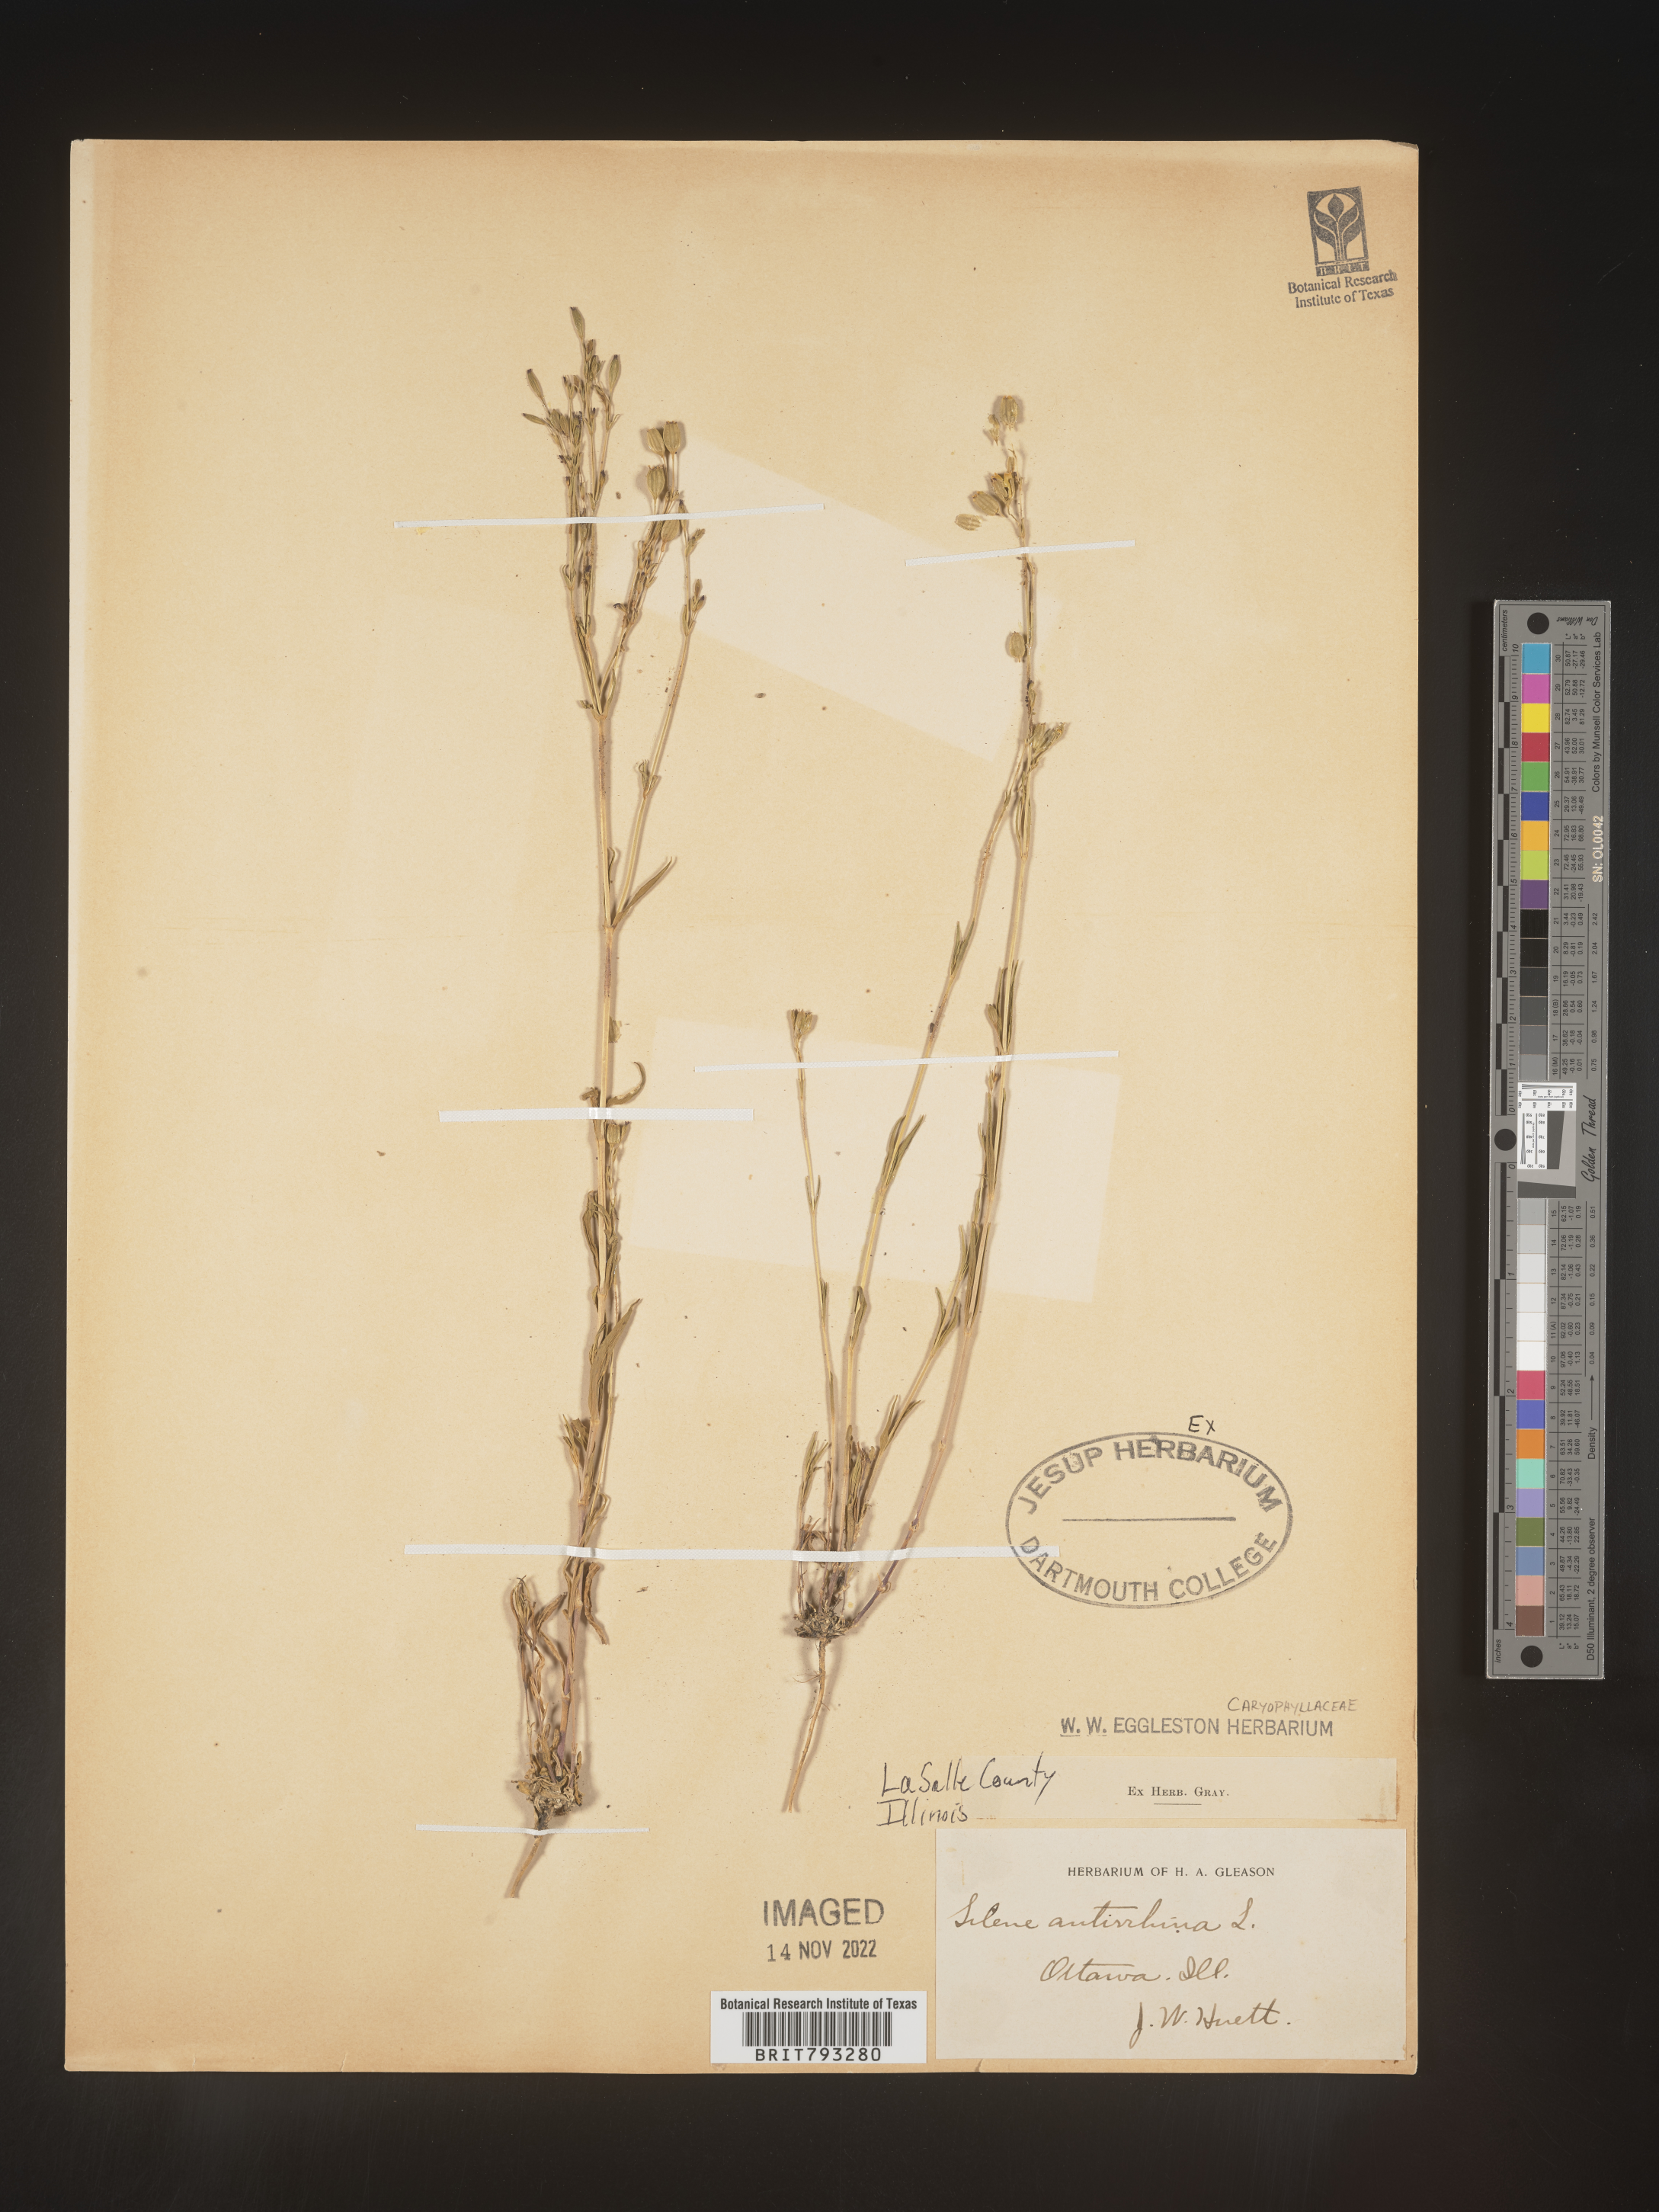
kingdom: Plantae
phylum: Tracheophyta
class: Magnoliopsida
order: Caryophyllales
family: Caryophyllaceae
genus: Silene
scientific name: Silene antirrhina
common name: Sleepy catchfly
